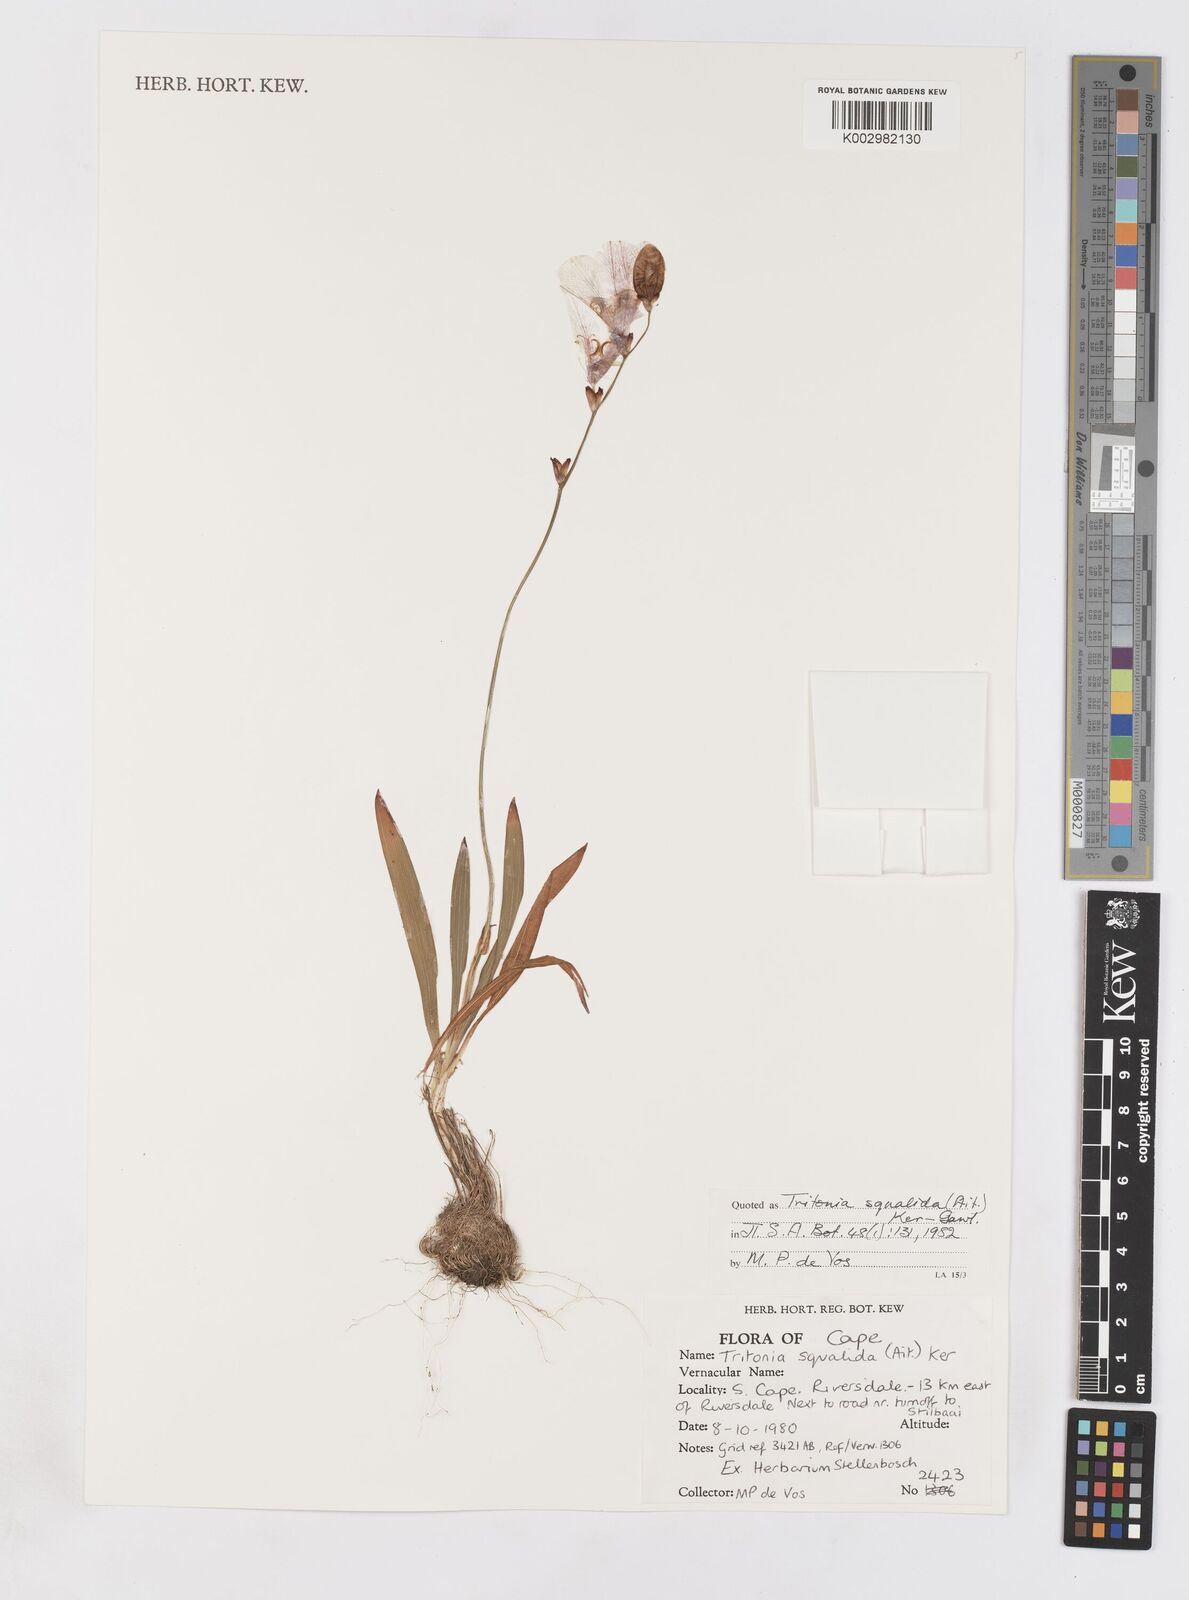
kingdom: Plantae
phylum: Tracheophyta
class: Liliopsida
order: Asparagales
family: Iridaceae
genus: Tritonia
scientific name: Tritonia squalida
